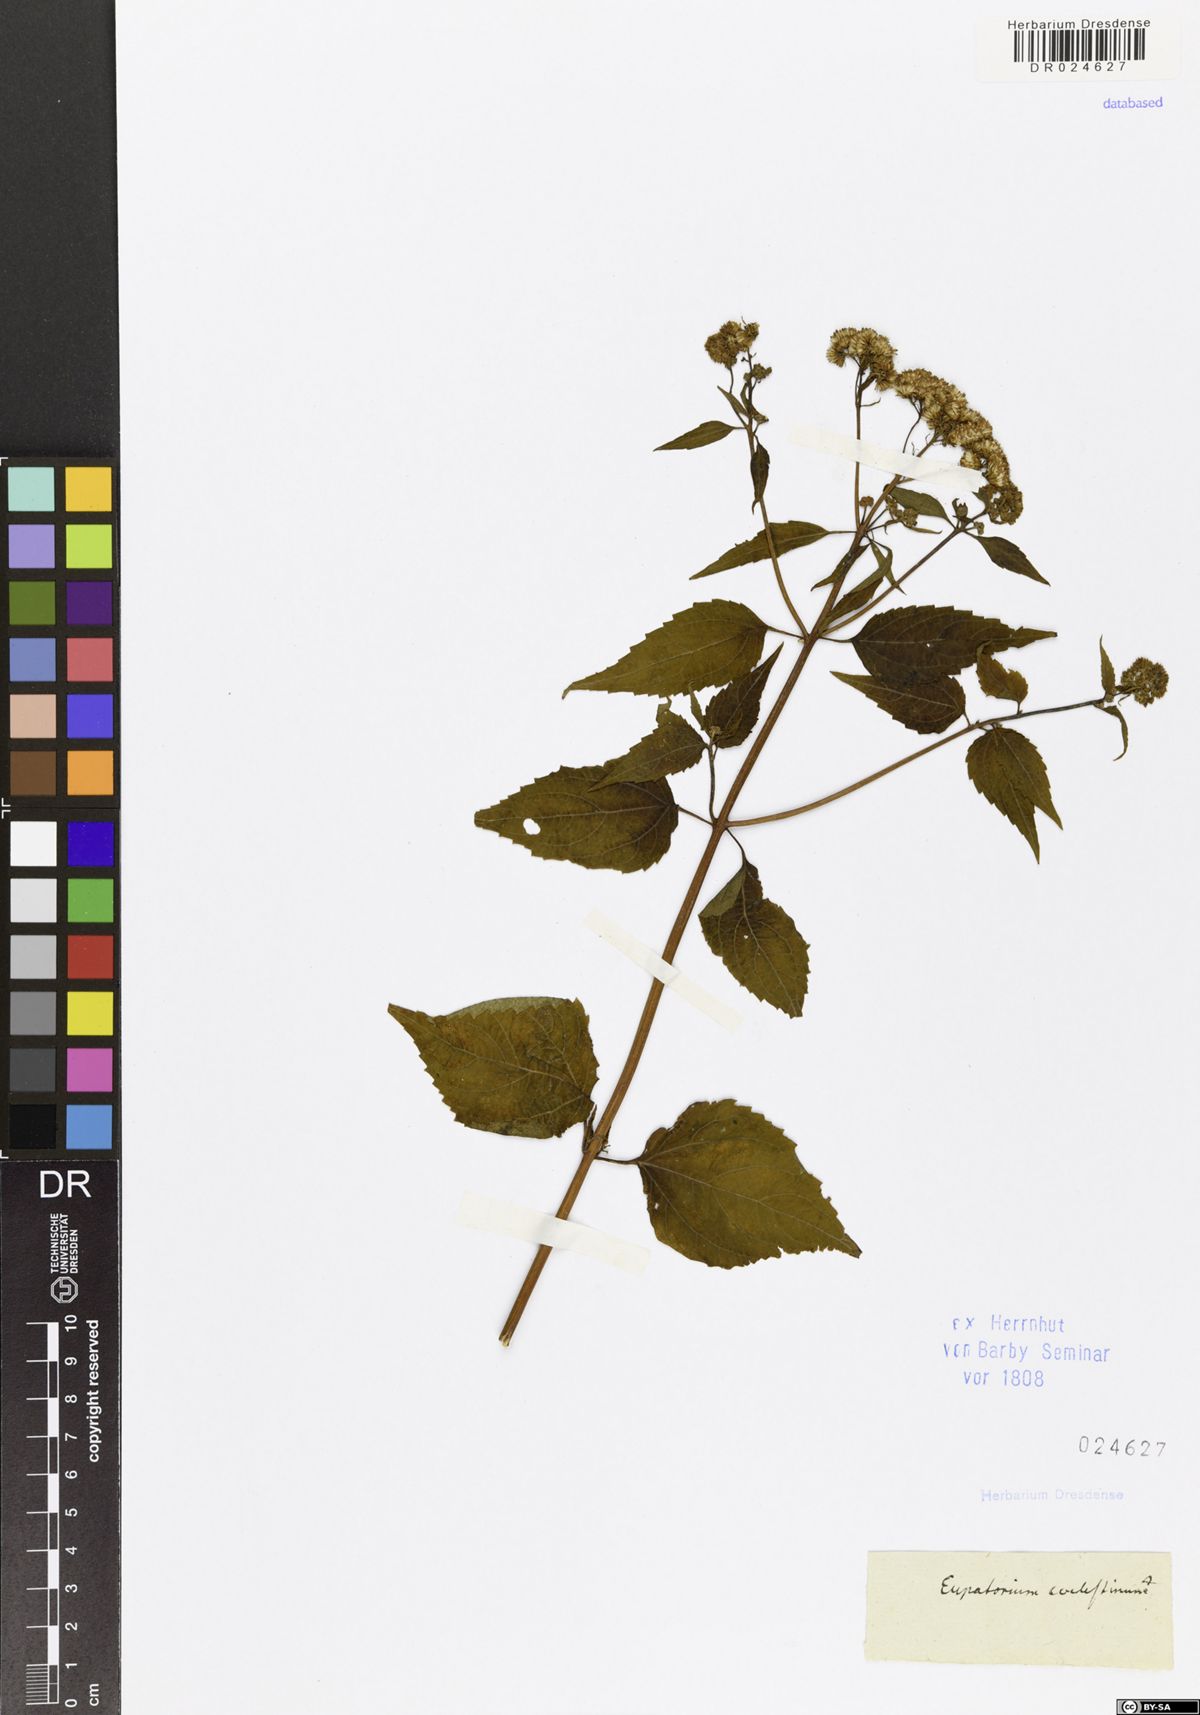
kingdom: Plantae
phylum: Tracheophyta
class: Magnoliopsida
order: Asterales
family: Asteraceae
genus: Conoclinium
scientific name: Conoclinium coelestinum
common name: Blue mistflower
